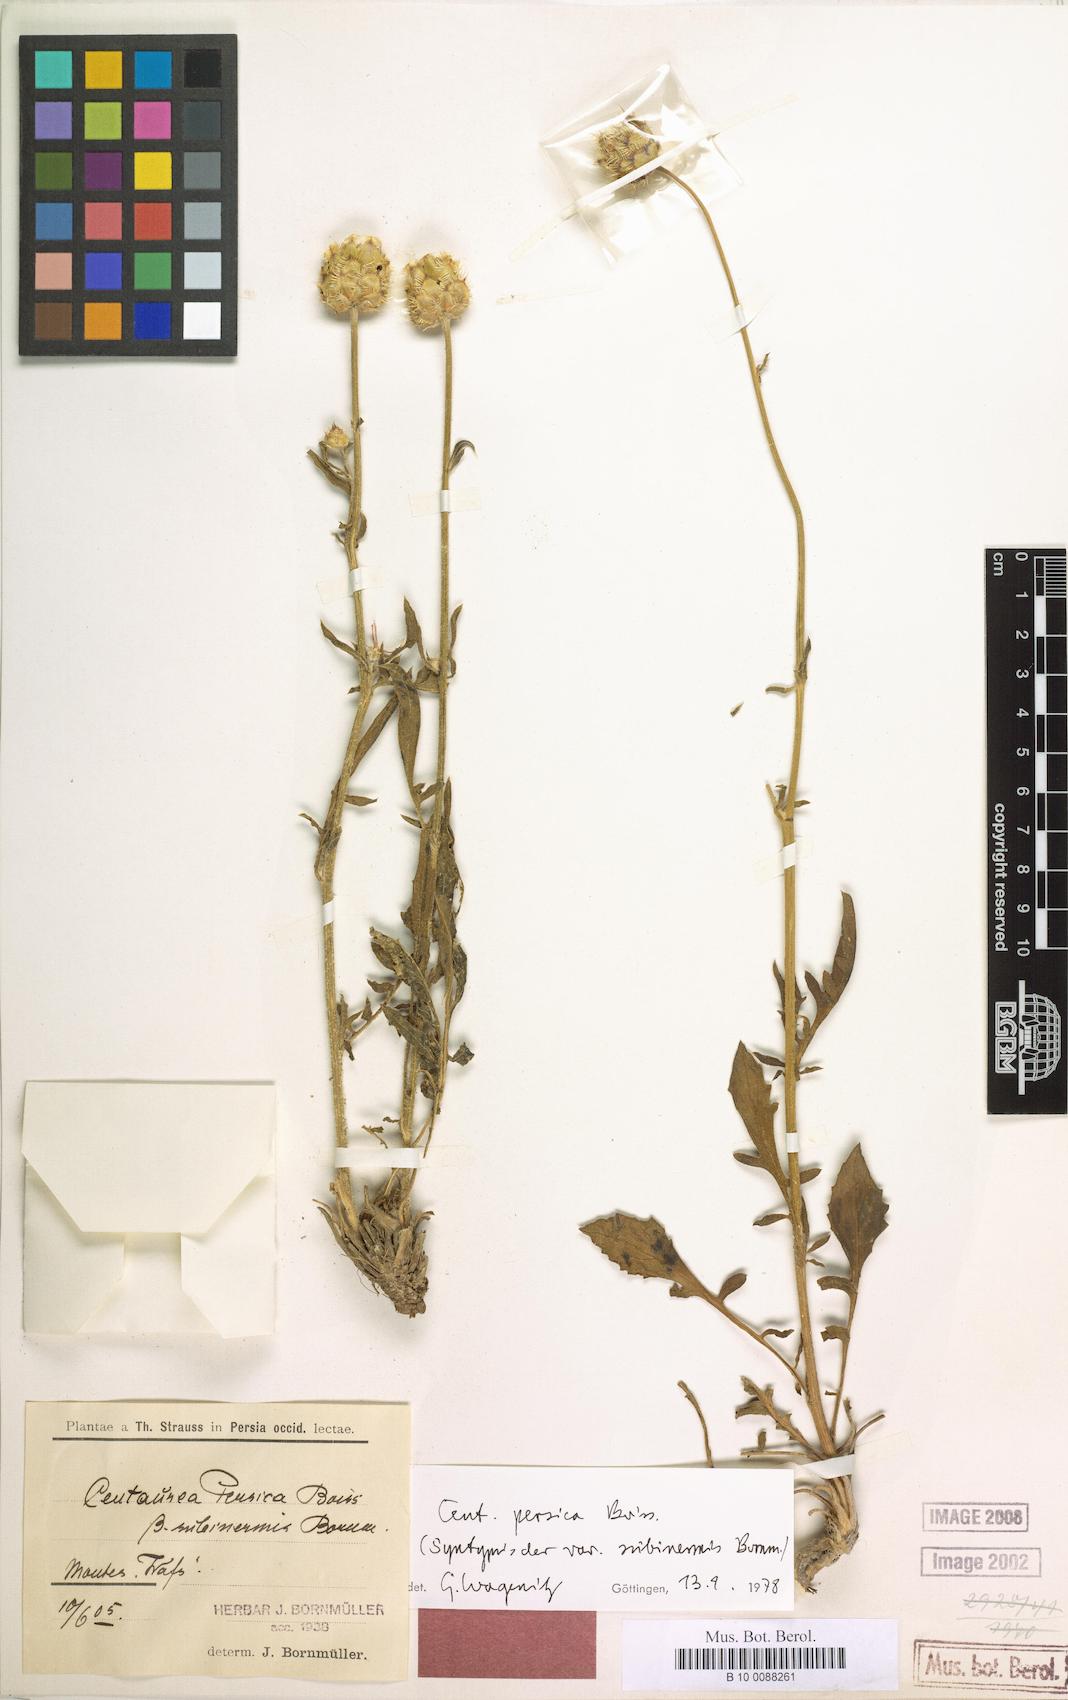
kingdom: Plantae
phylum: Tracheophyta
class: Magnoliopsida
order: Asterales
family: Asteraceae
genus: Centaurea
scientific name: Centaurea persica
